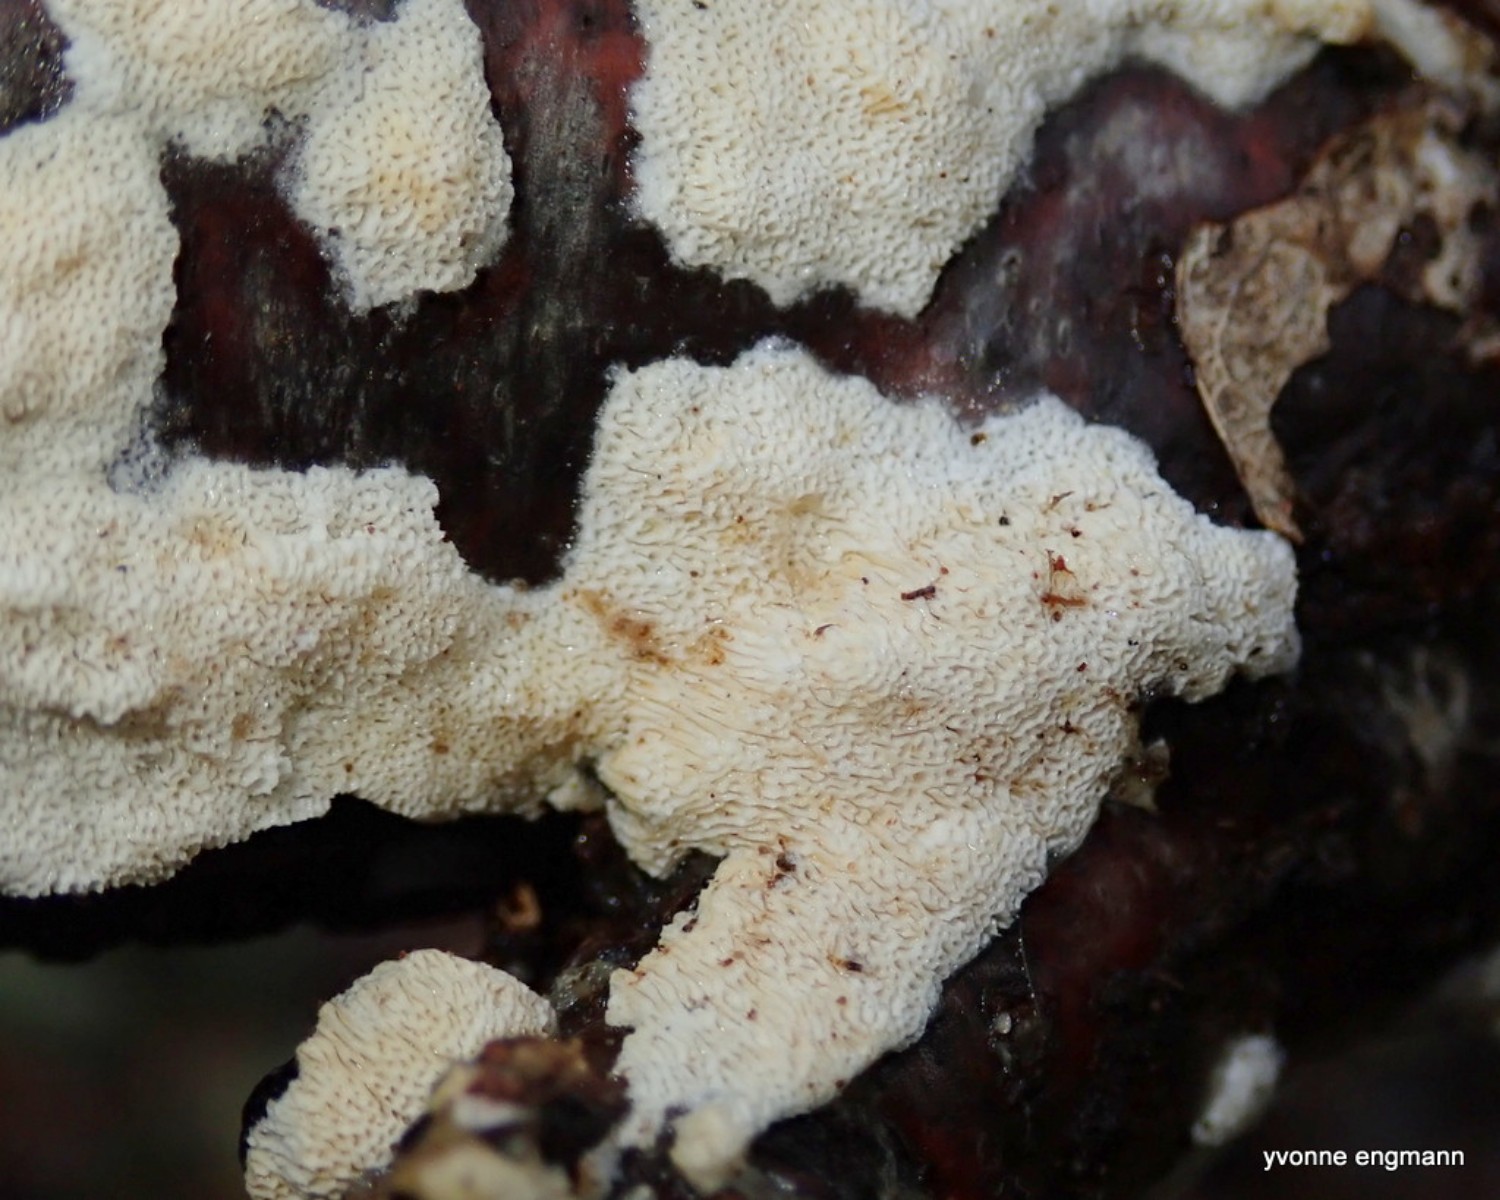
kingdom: Fungi
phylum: Basidiomycota
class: Agaricomycetes
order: Hymenochaetales
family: Schizoporaceae
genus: Xylodon
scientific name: Xylodon subtropicus
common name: labyrint-tandsvamp
